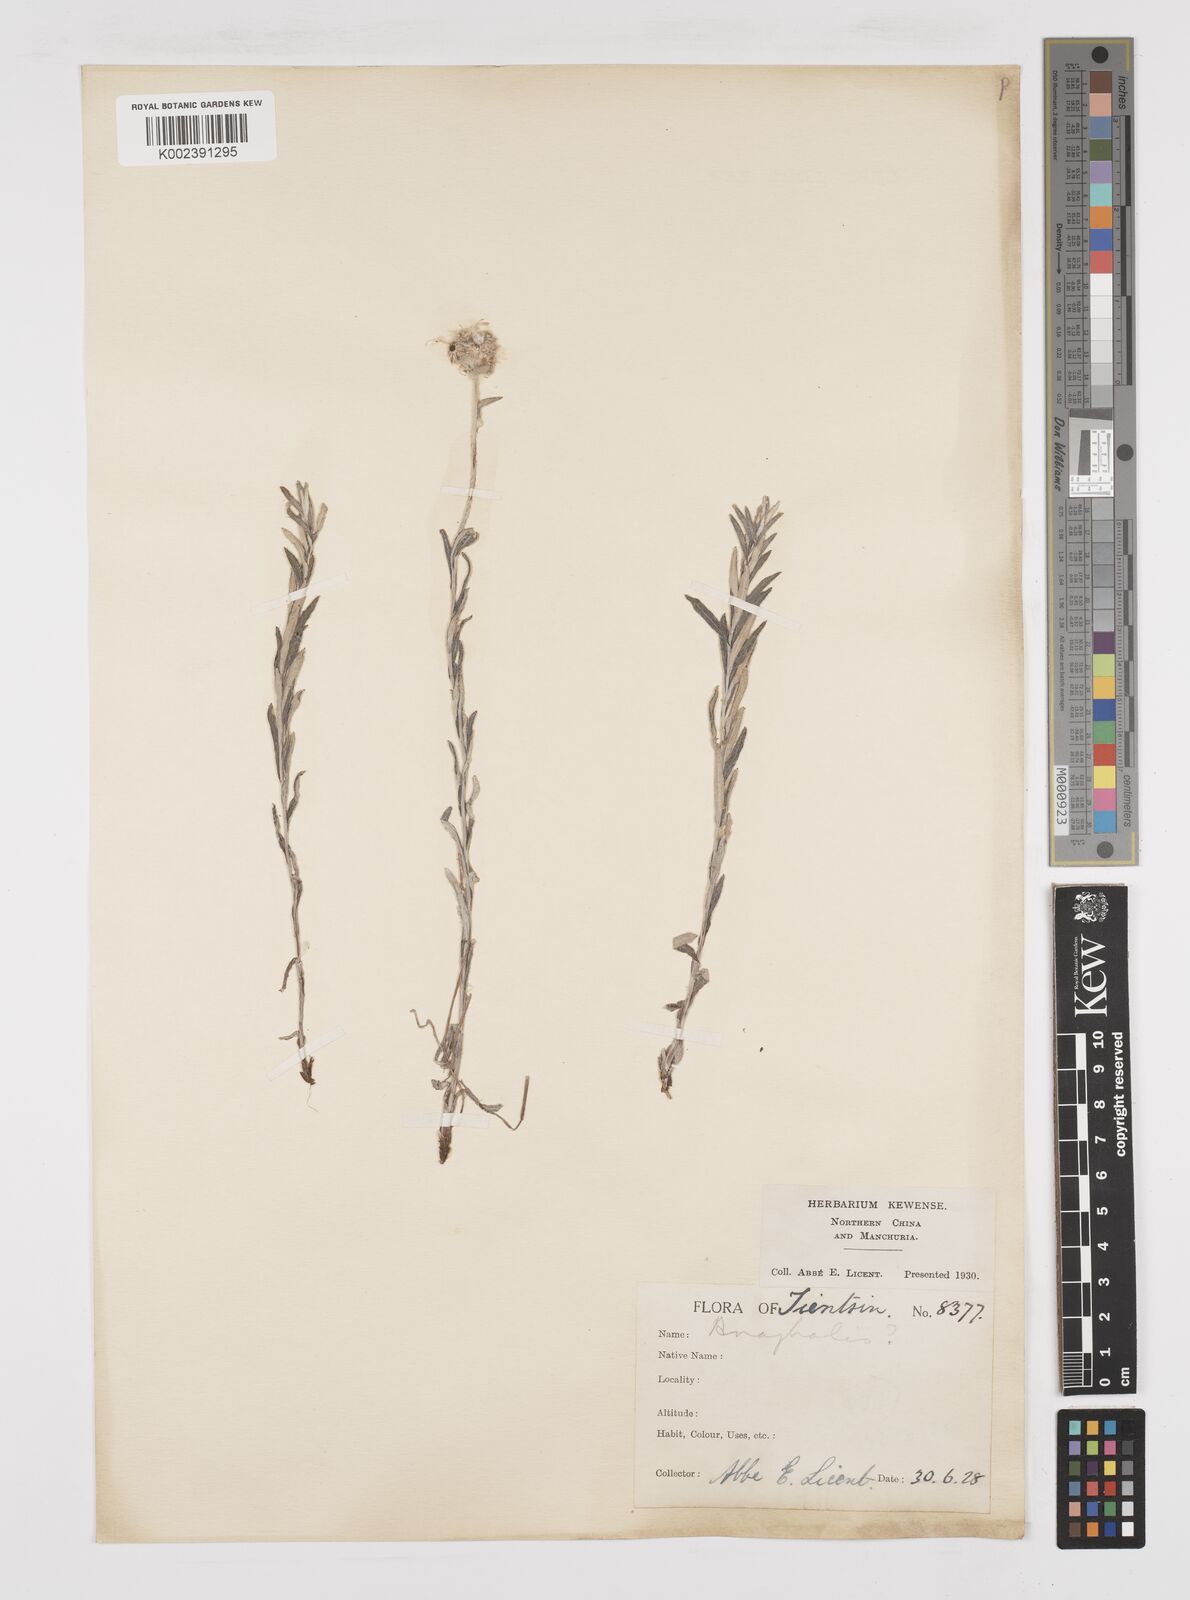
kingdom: Plantae
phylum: Tracheophyta
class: Magnoliopsida
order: Asterales
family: Asteraceae
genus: Anaphalis
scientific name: Anaphalis sinica
